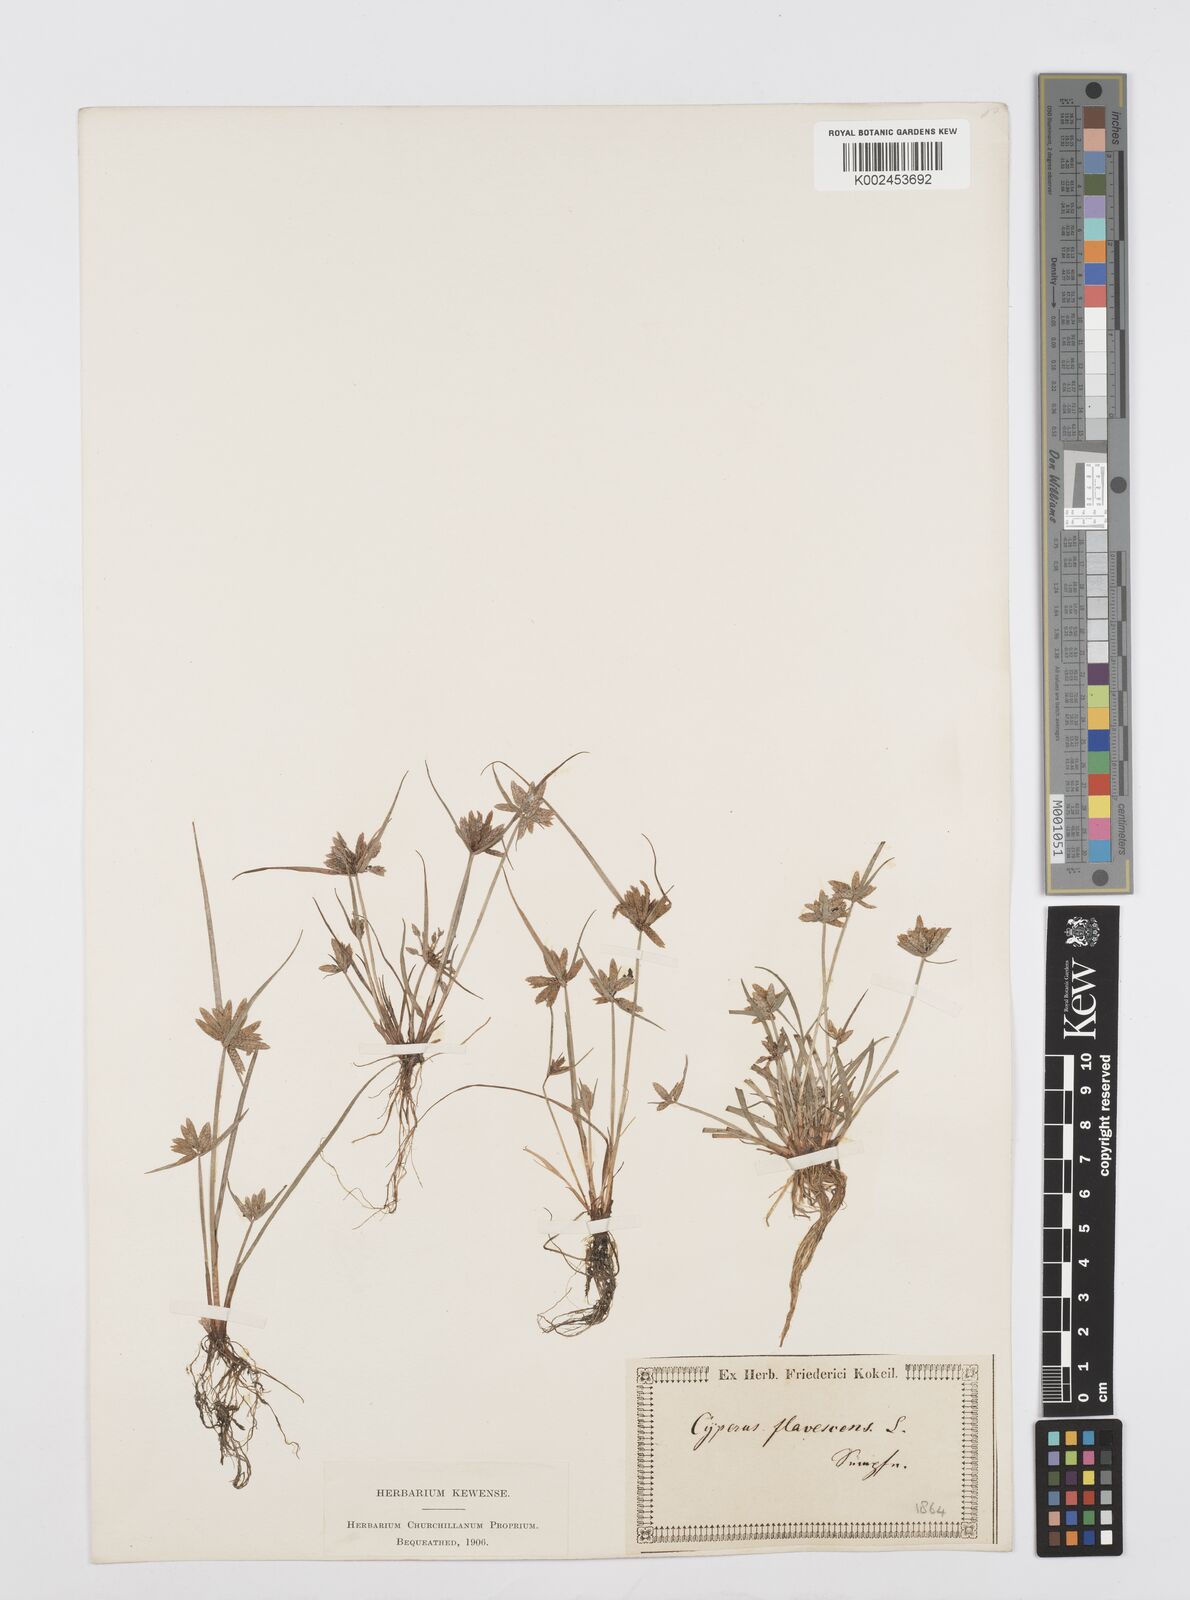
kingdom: Plantae
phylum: Tracheophyta
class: Liliopsida
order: Poales
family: Cyperaceae
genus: Cyperus
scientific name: Cyperus flavescens
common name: Yellow galingale
